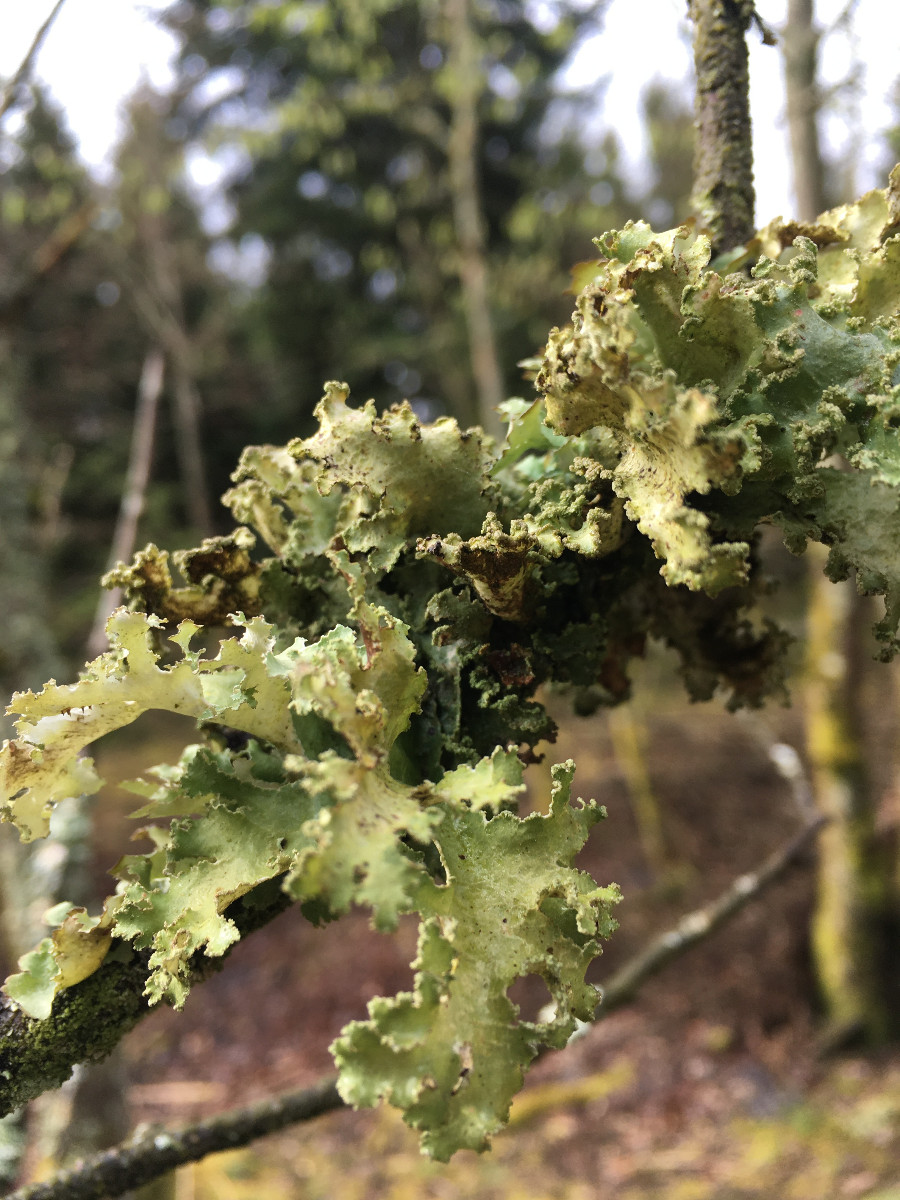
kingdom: Fungi
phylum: Ascomycota
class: Lecanoromycetes
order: Lecanorales
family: Parmeliaceae
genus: Nephromopsis
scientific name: Nephromopsis chlorophylla
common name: olivenbrun kruslav
